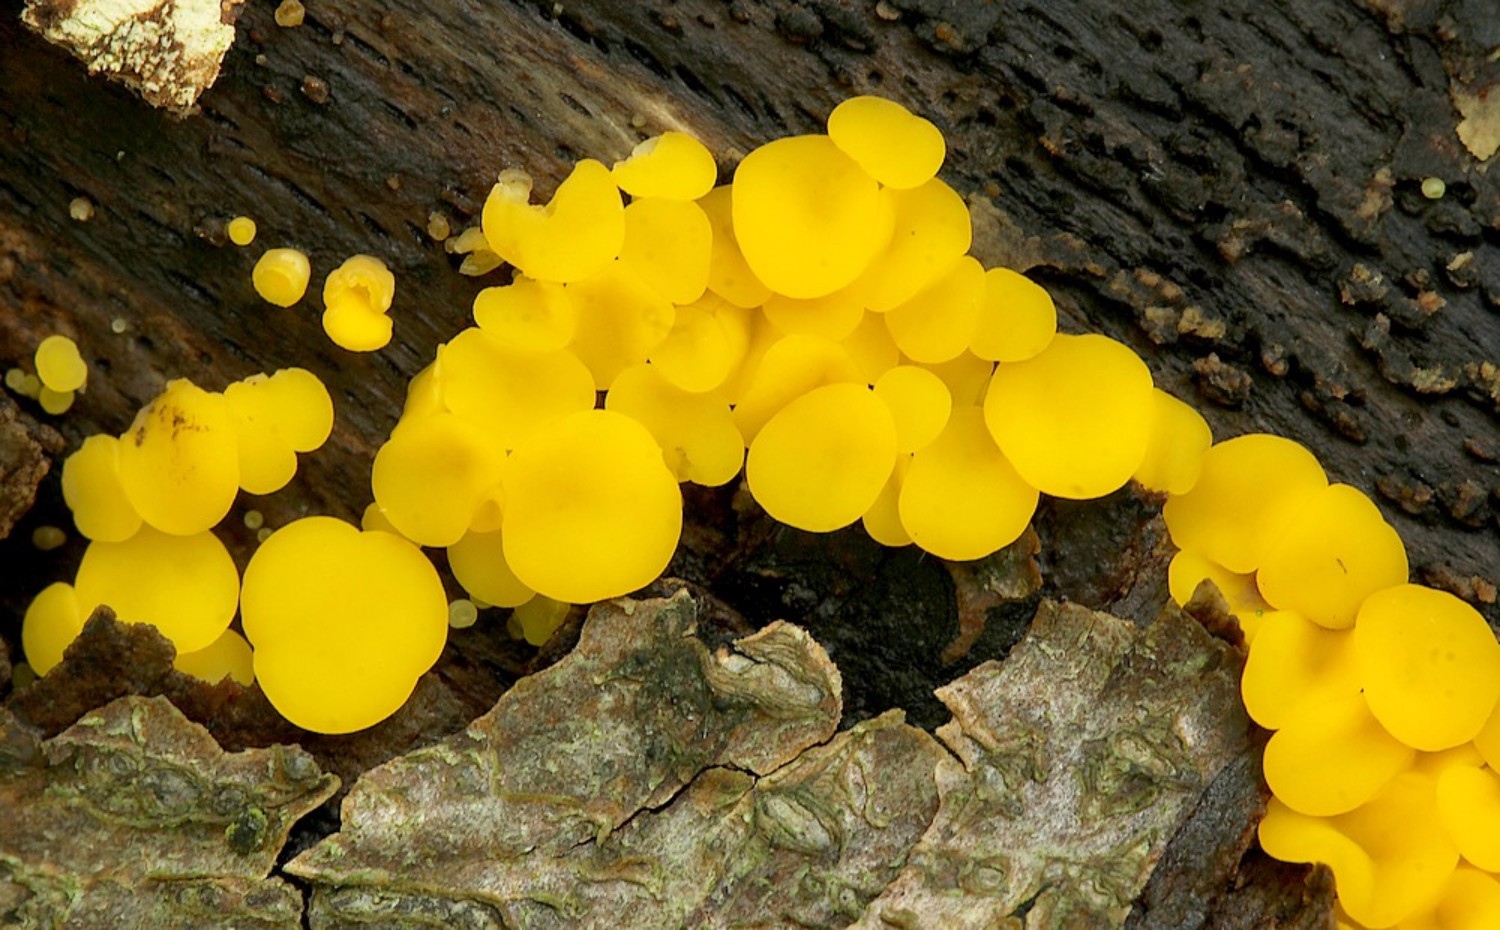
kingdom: Fungi
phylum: Ascomycota
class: Leotiomycetes
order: Helotiales
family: Pezizellaceae
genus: Calycina
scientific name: Calycina citrina
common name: almindelig gulskive
